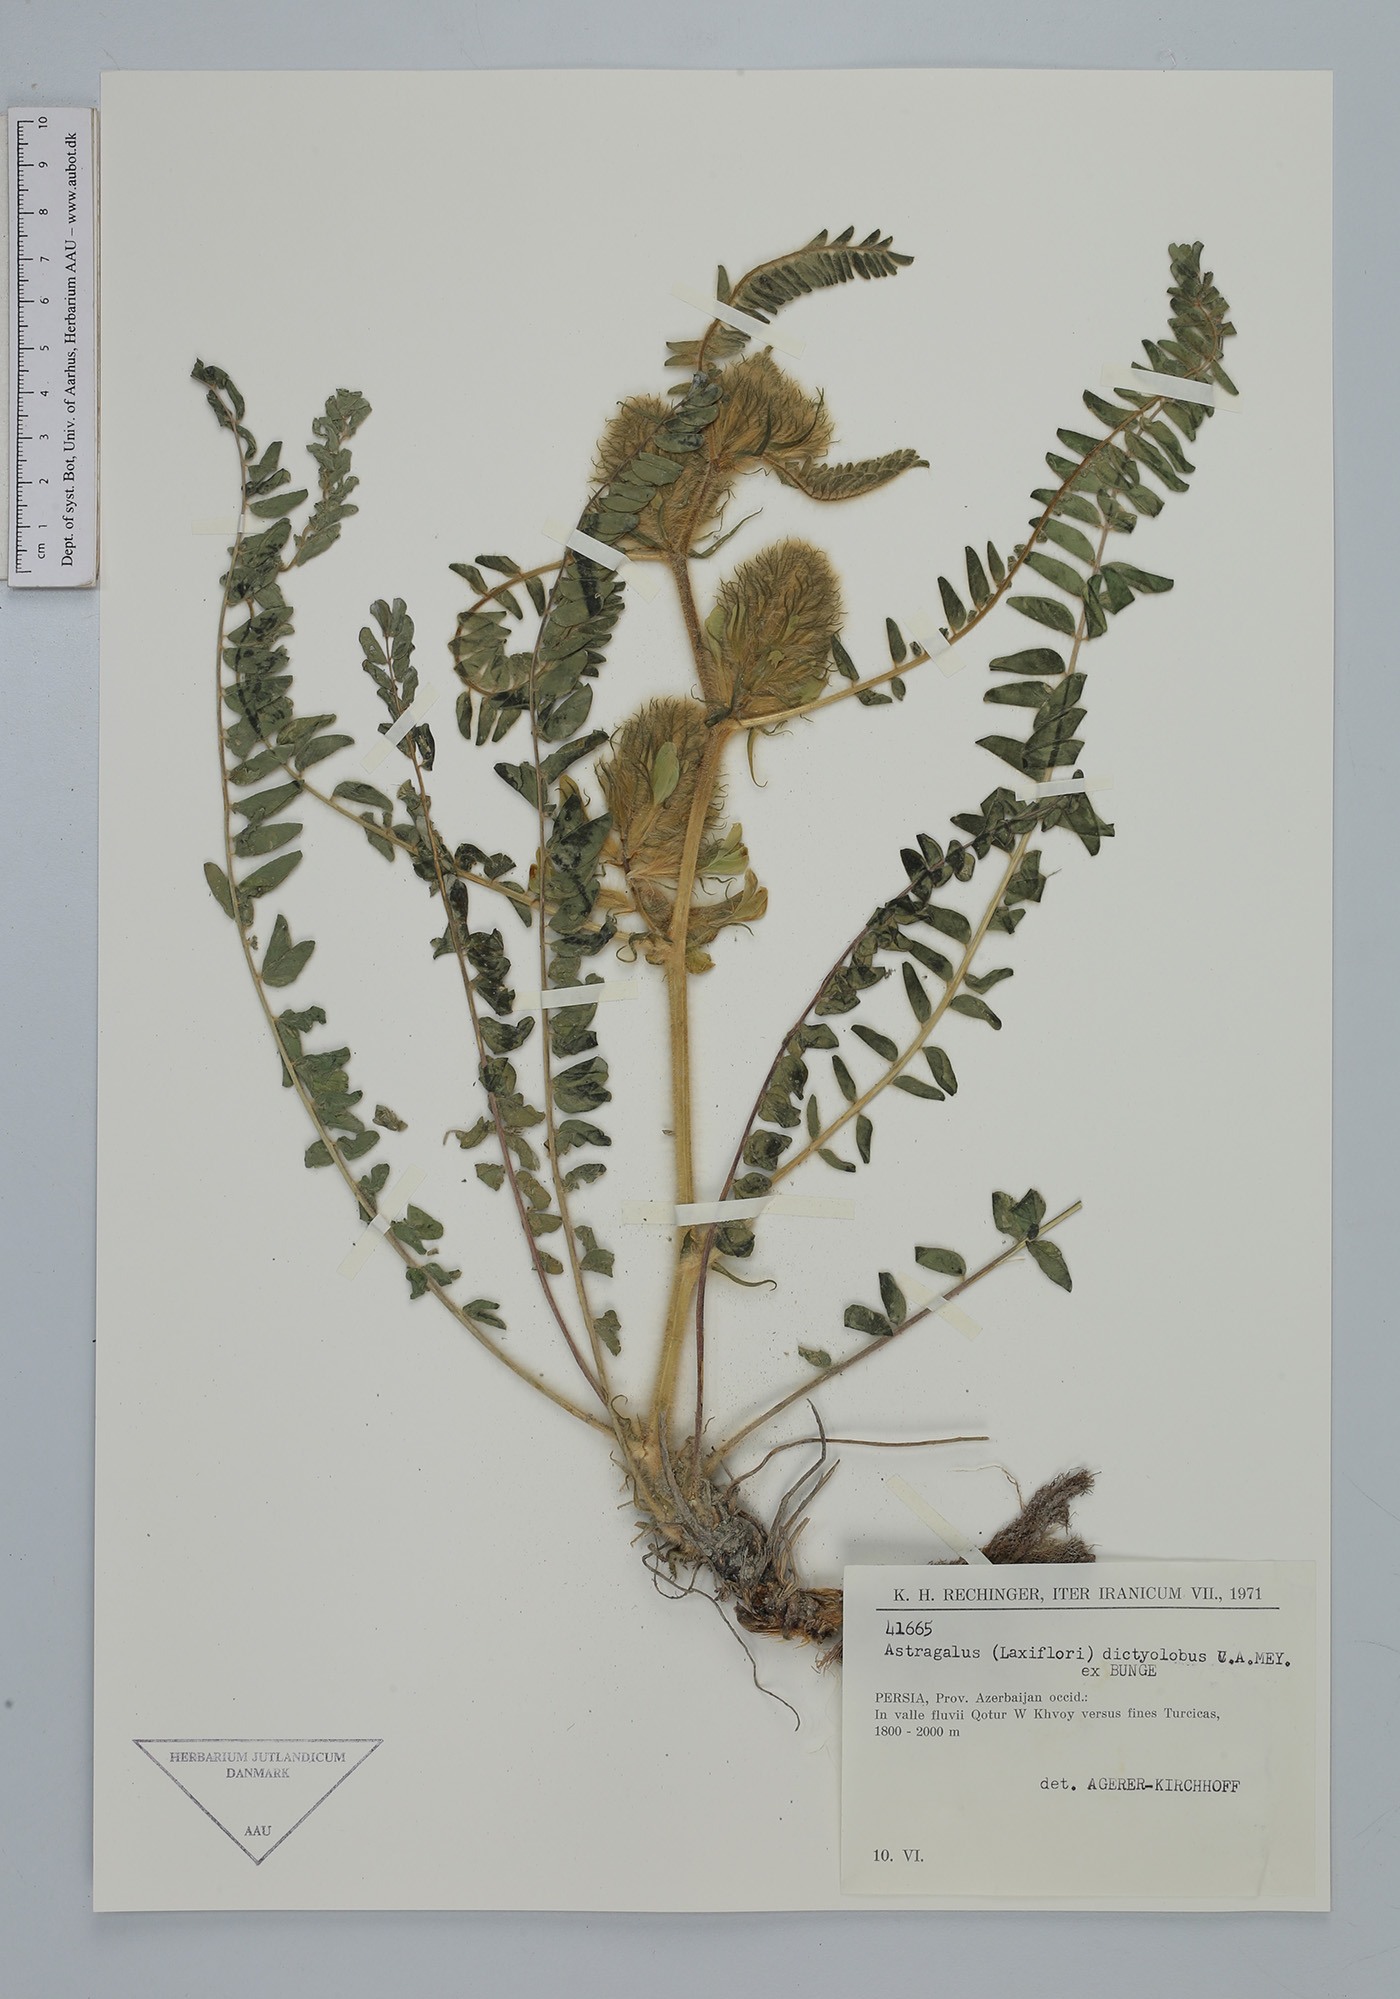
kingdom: Plantae
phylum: Tracheophyta
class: Magnoliopsida
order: Fabales
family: Fabaceae
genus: Astragalus
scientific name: Astragalus dictyolobus
